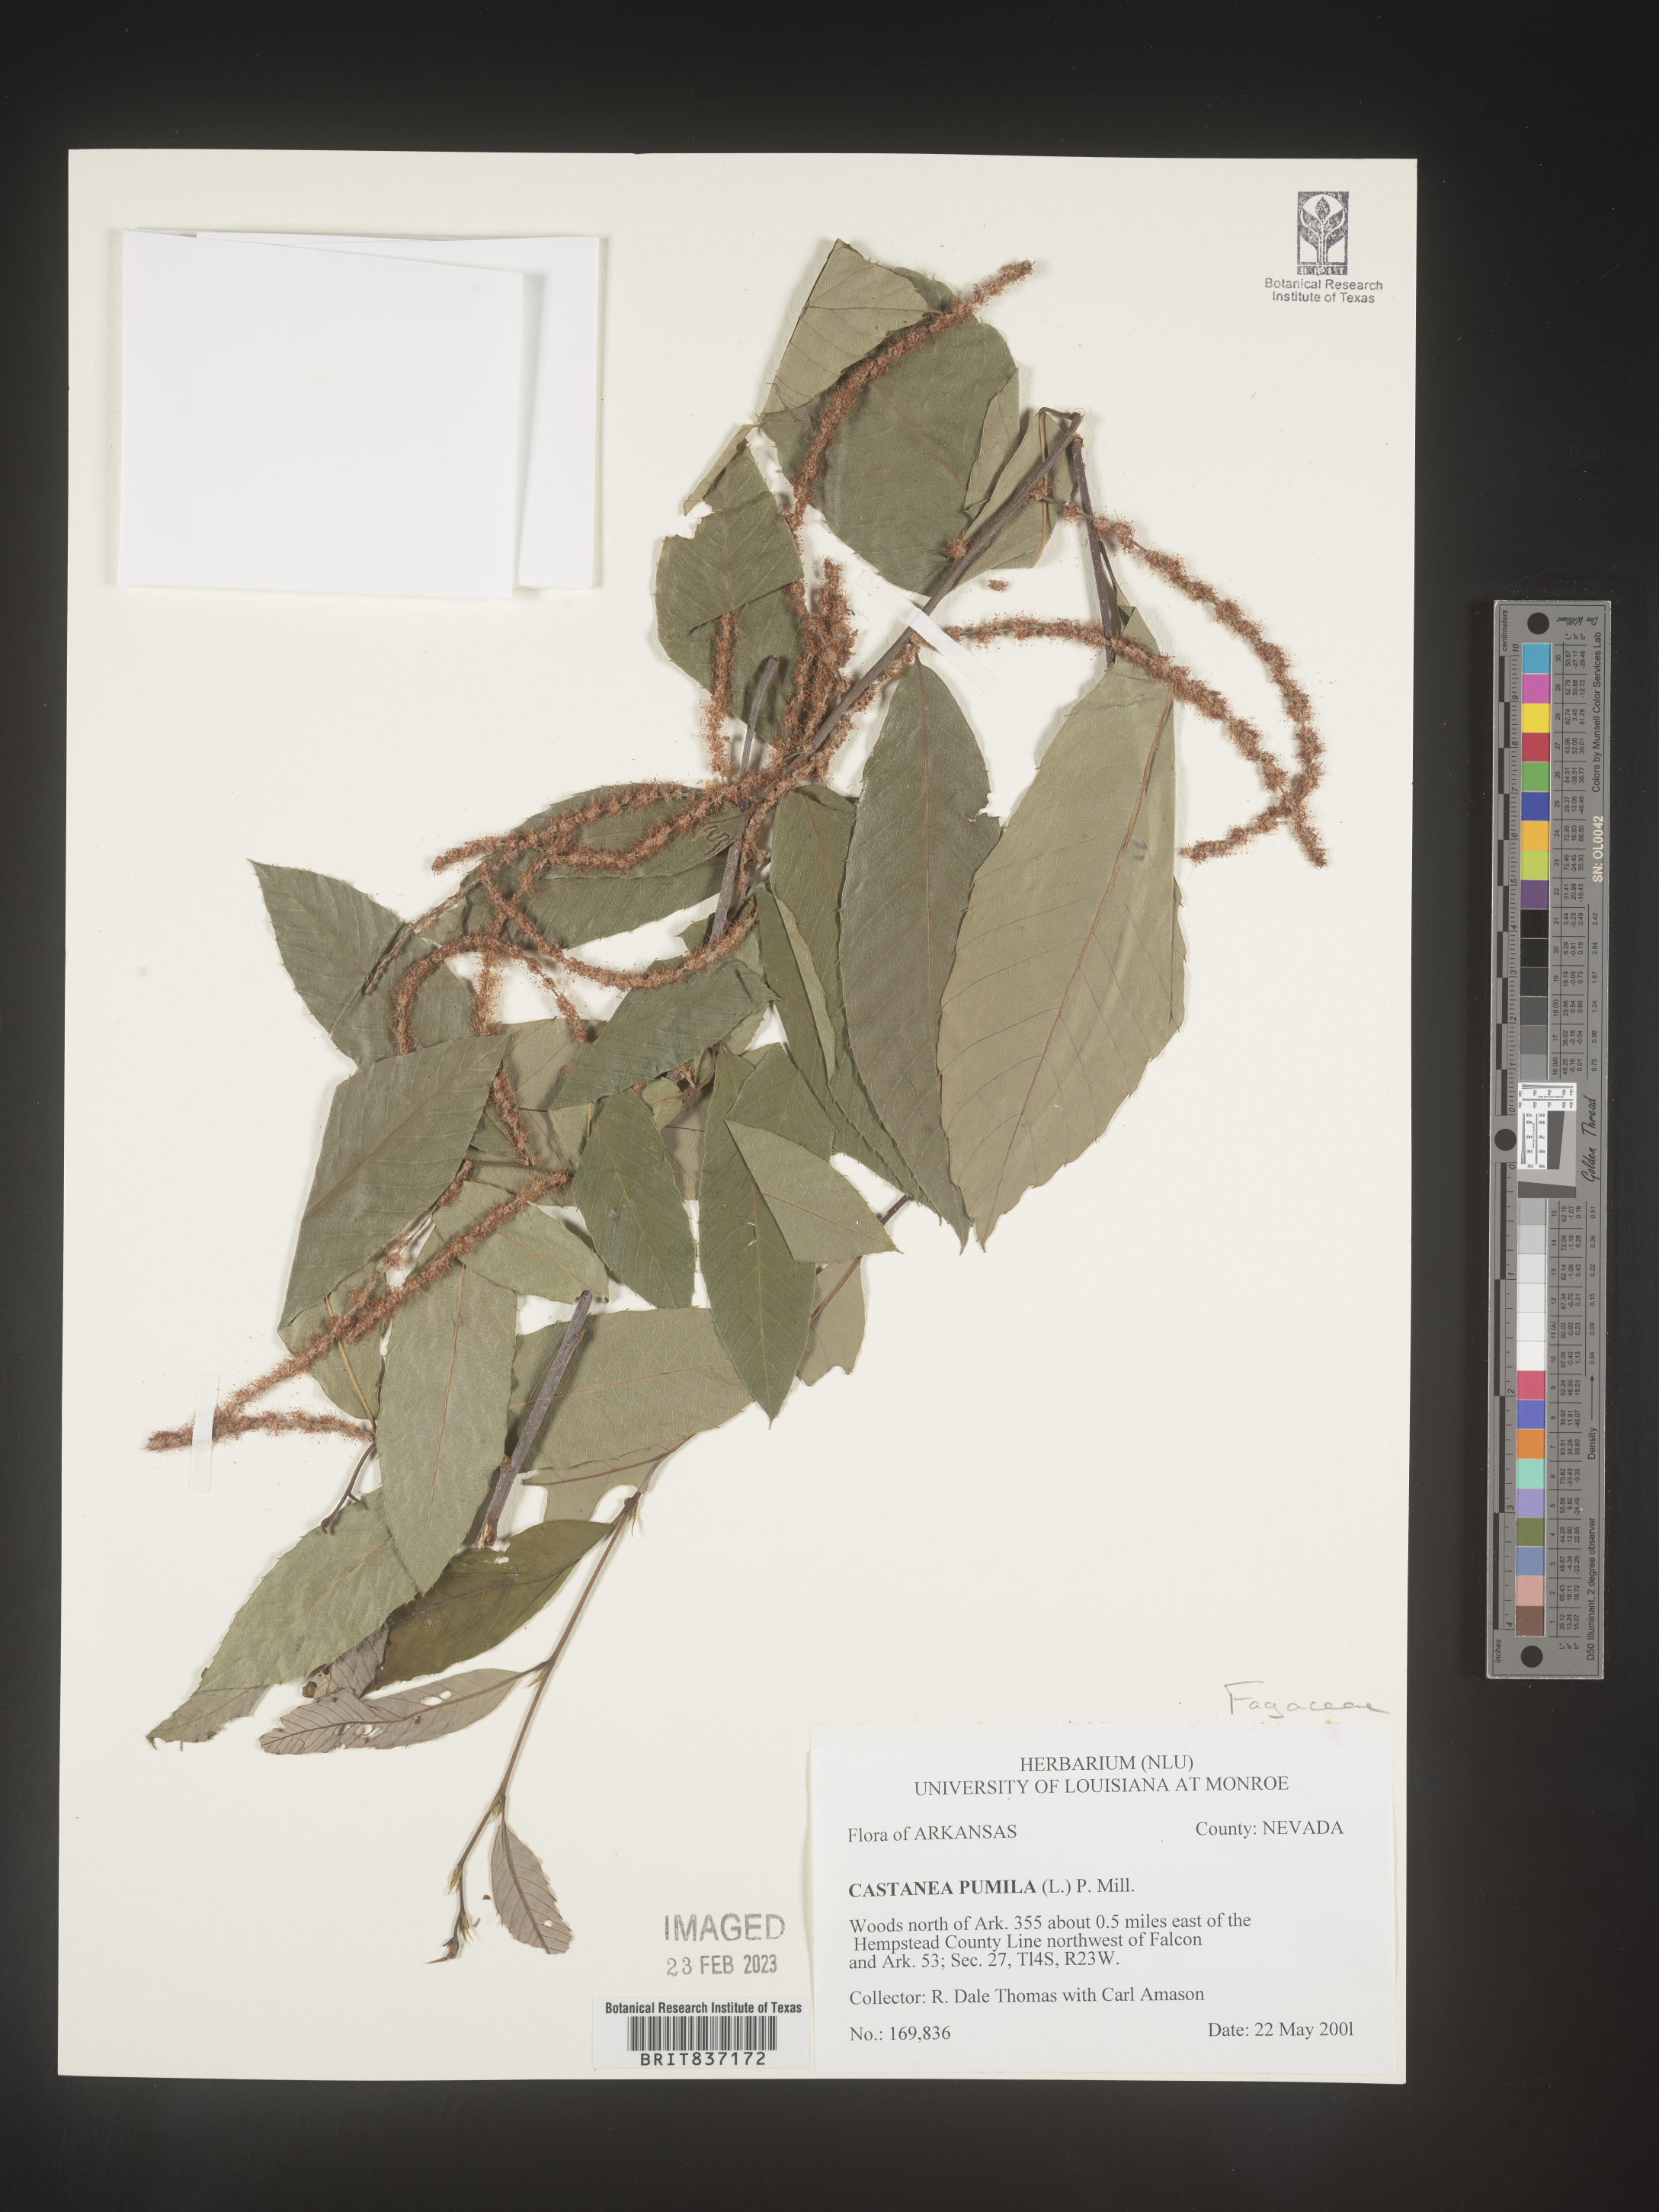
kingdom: Plantae
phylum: Tracheophyta
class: Magnoliopsida
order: Fagales
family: Fagaceae
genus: Castanea
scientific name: Castanea pumila
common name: Chinkapin
